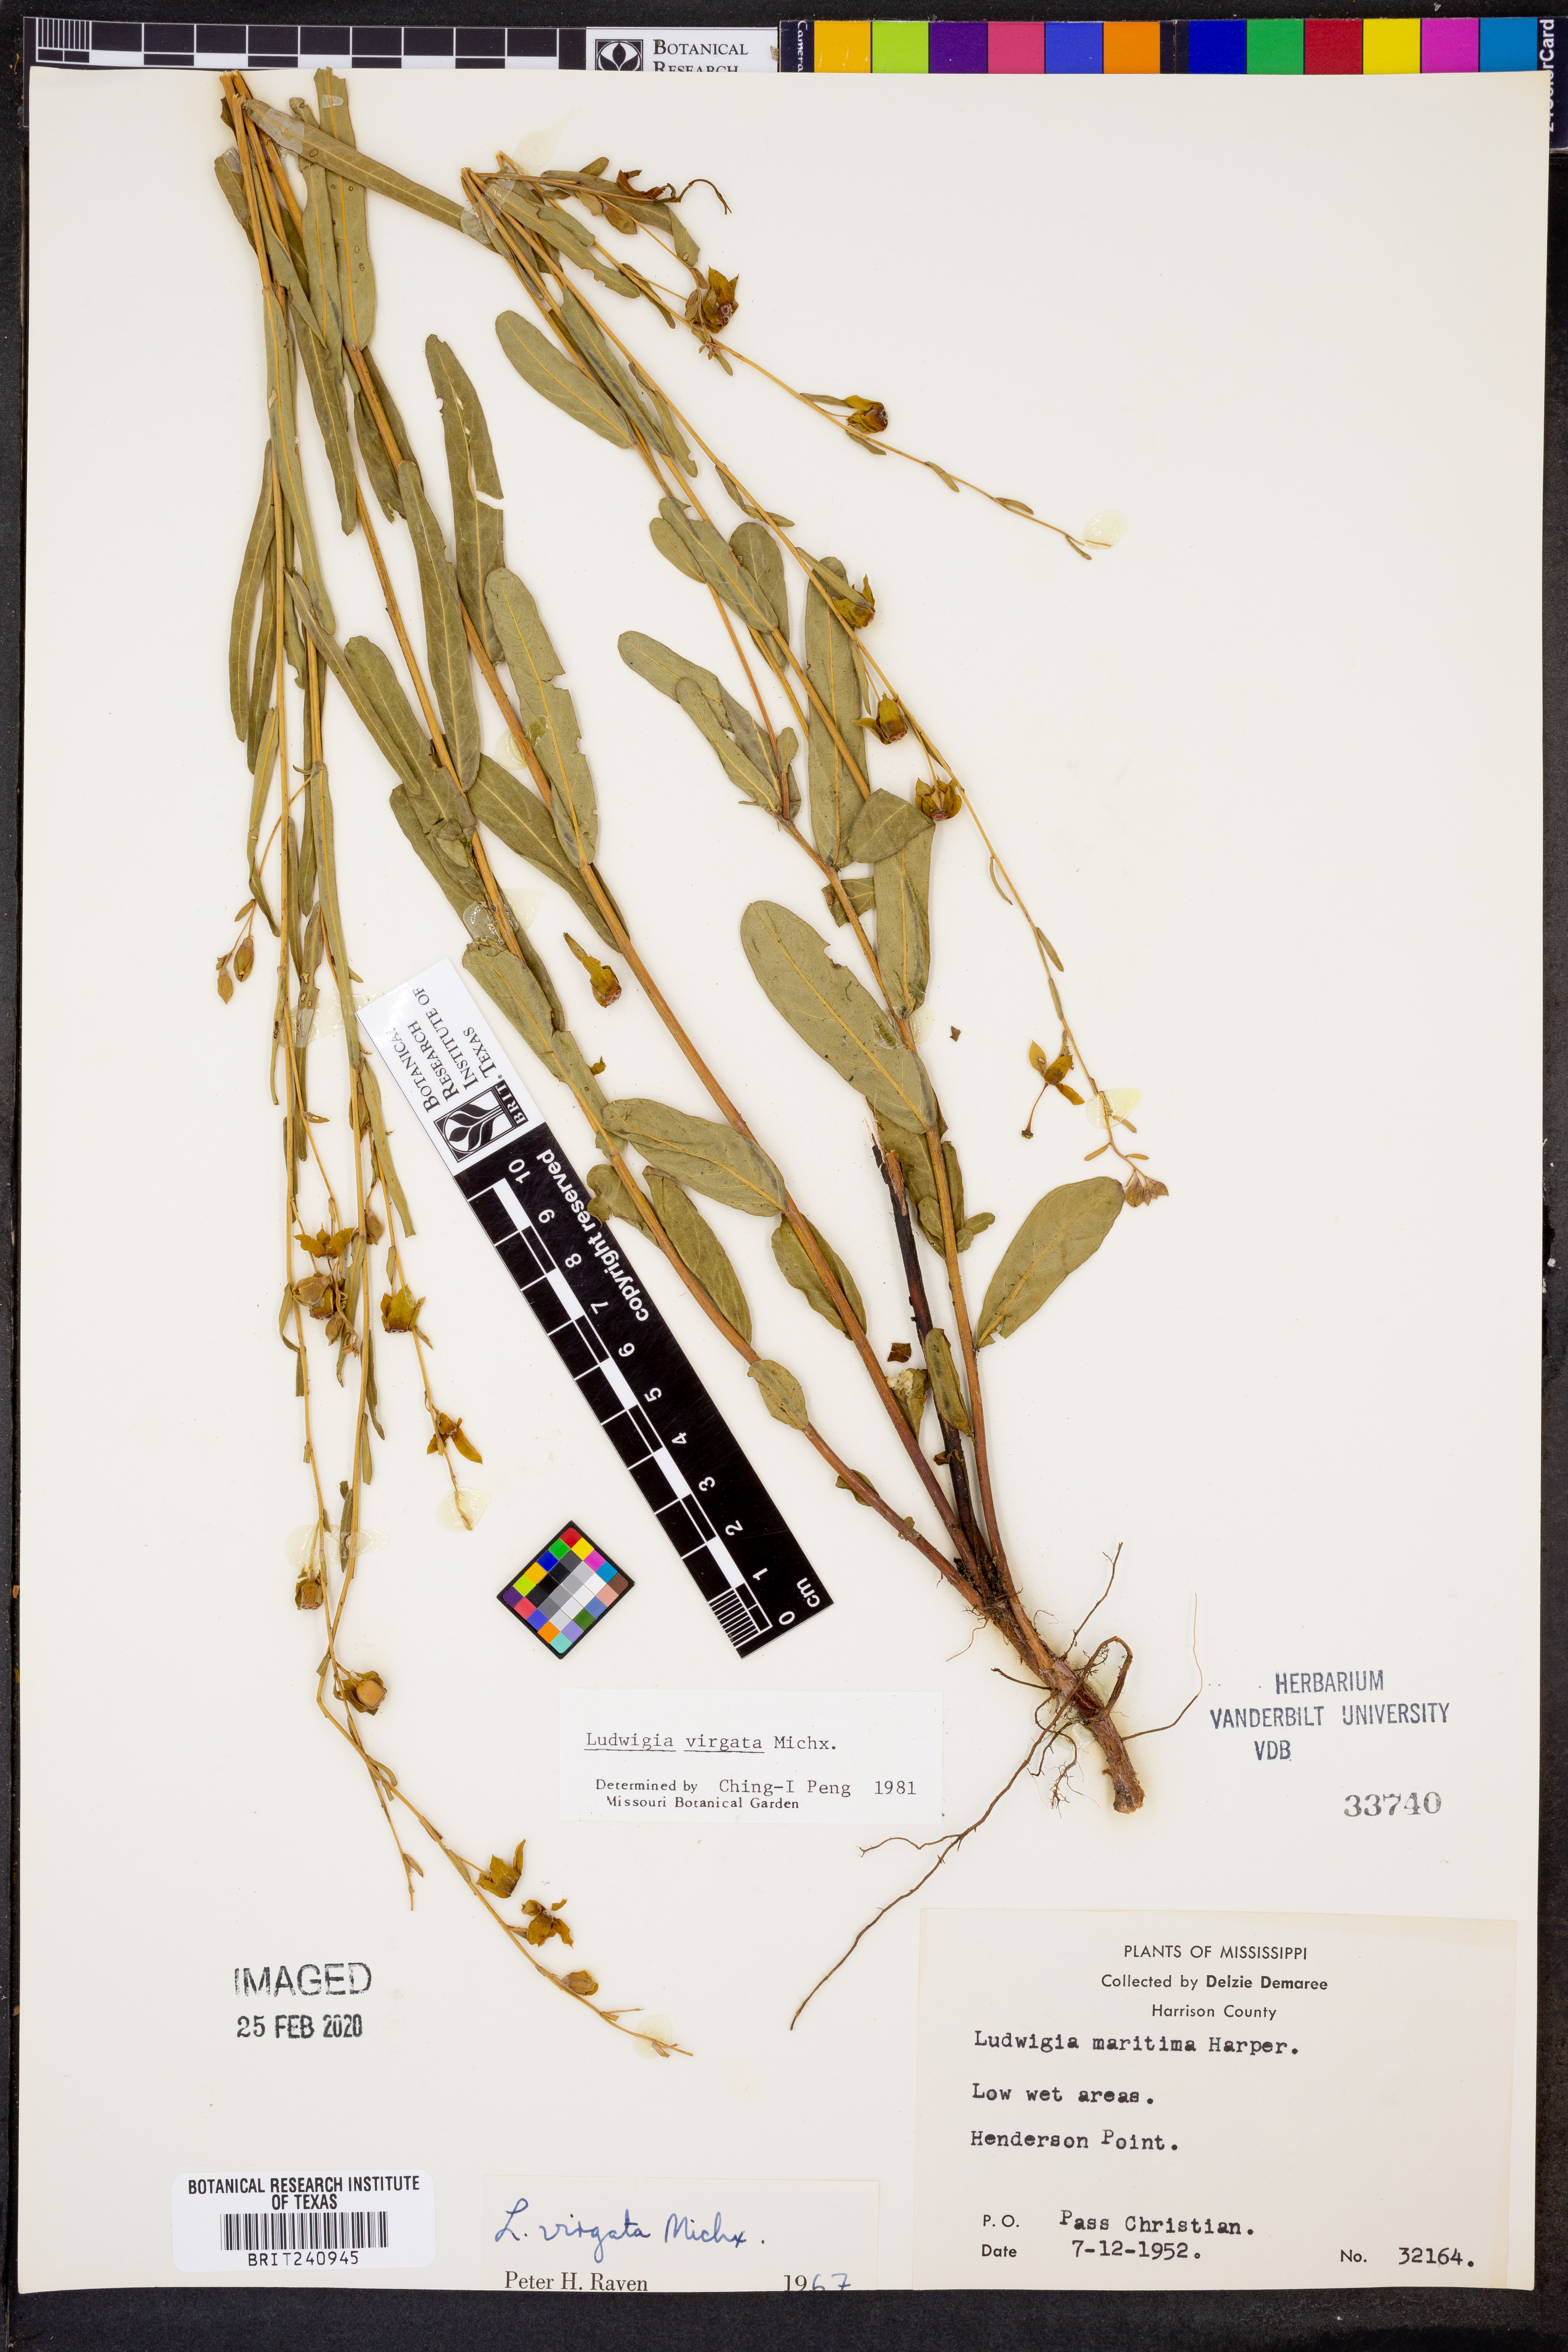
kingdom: Plantae
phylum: Tracheophyta
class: Magnoliopsida
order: Myrtales
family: Onagraceae
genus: Ludwigia
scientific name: Ludwigia virgata
